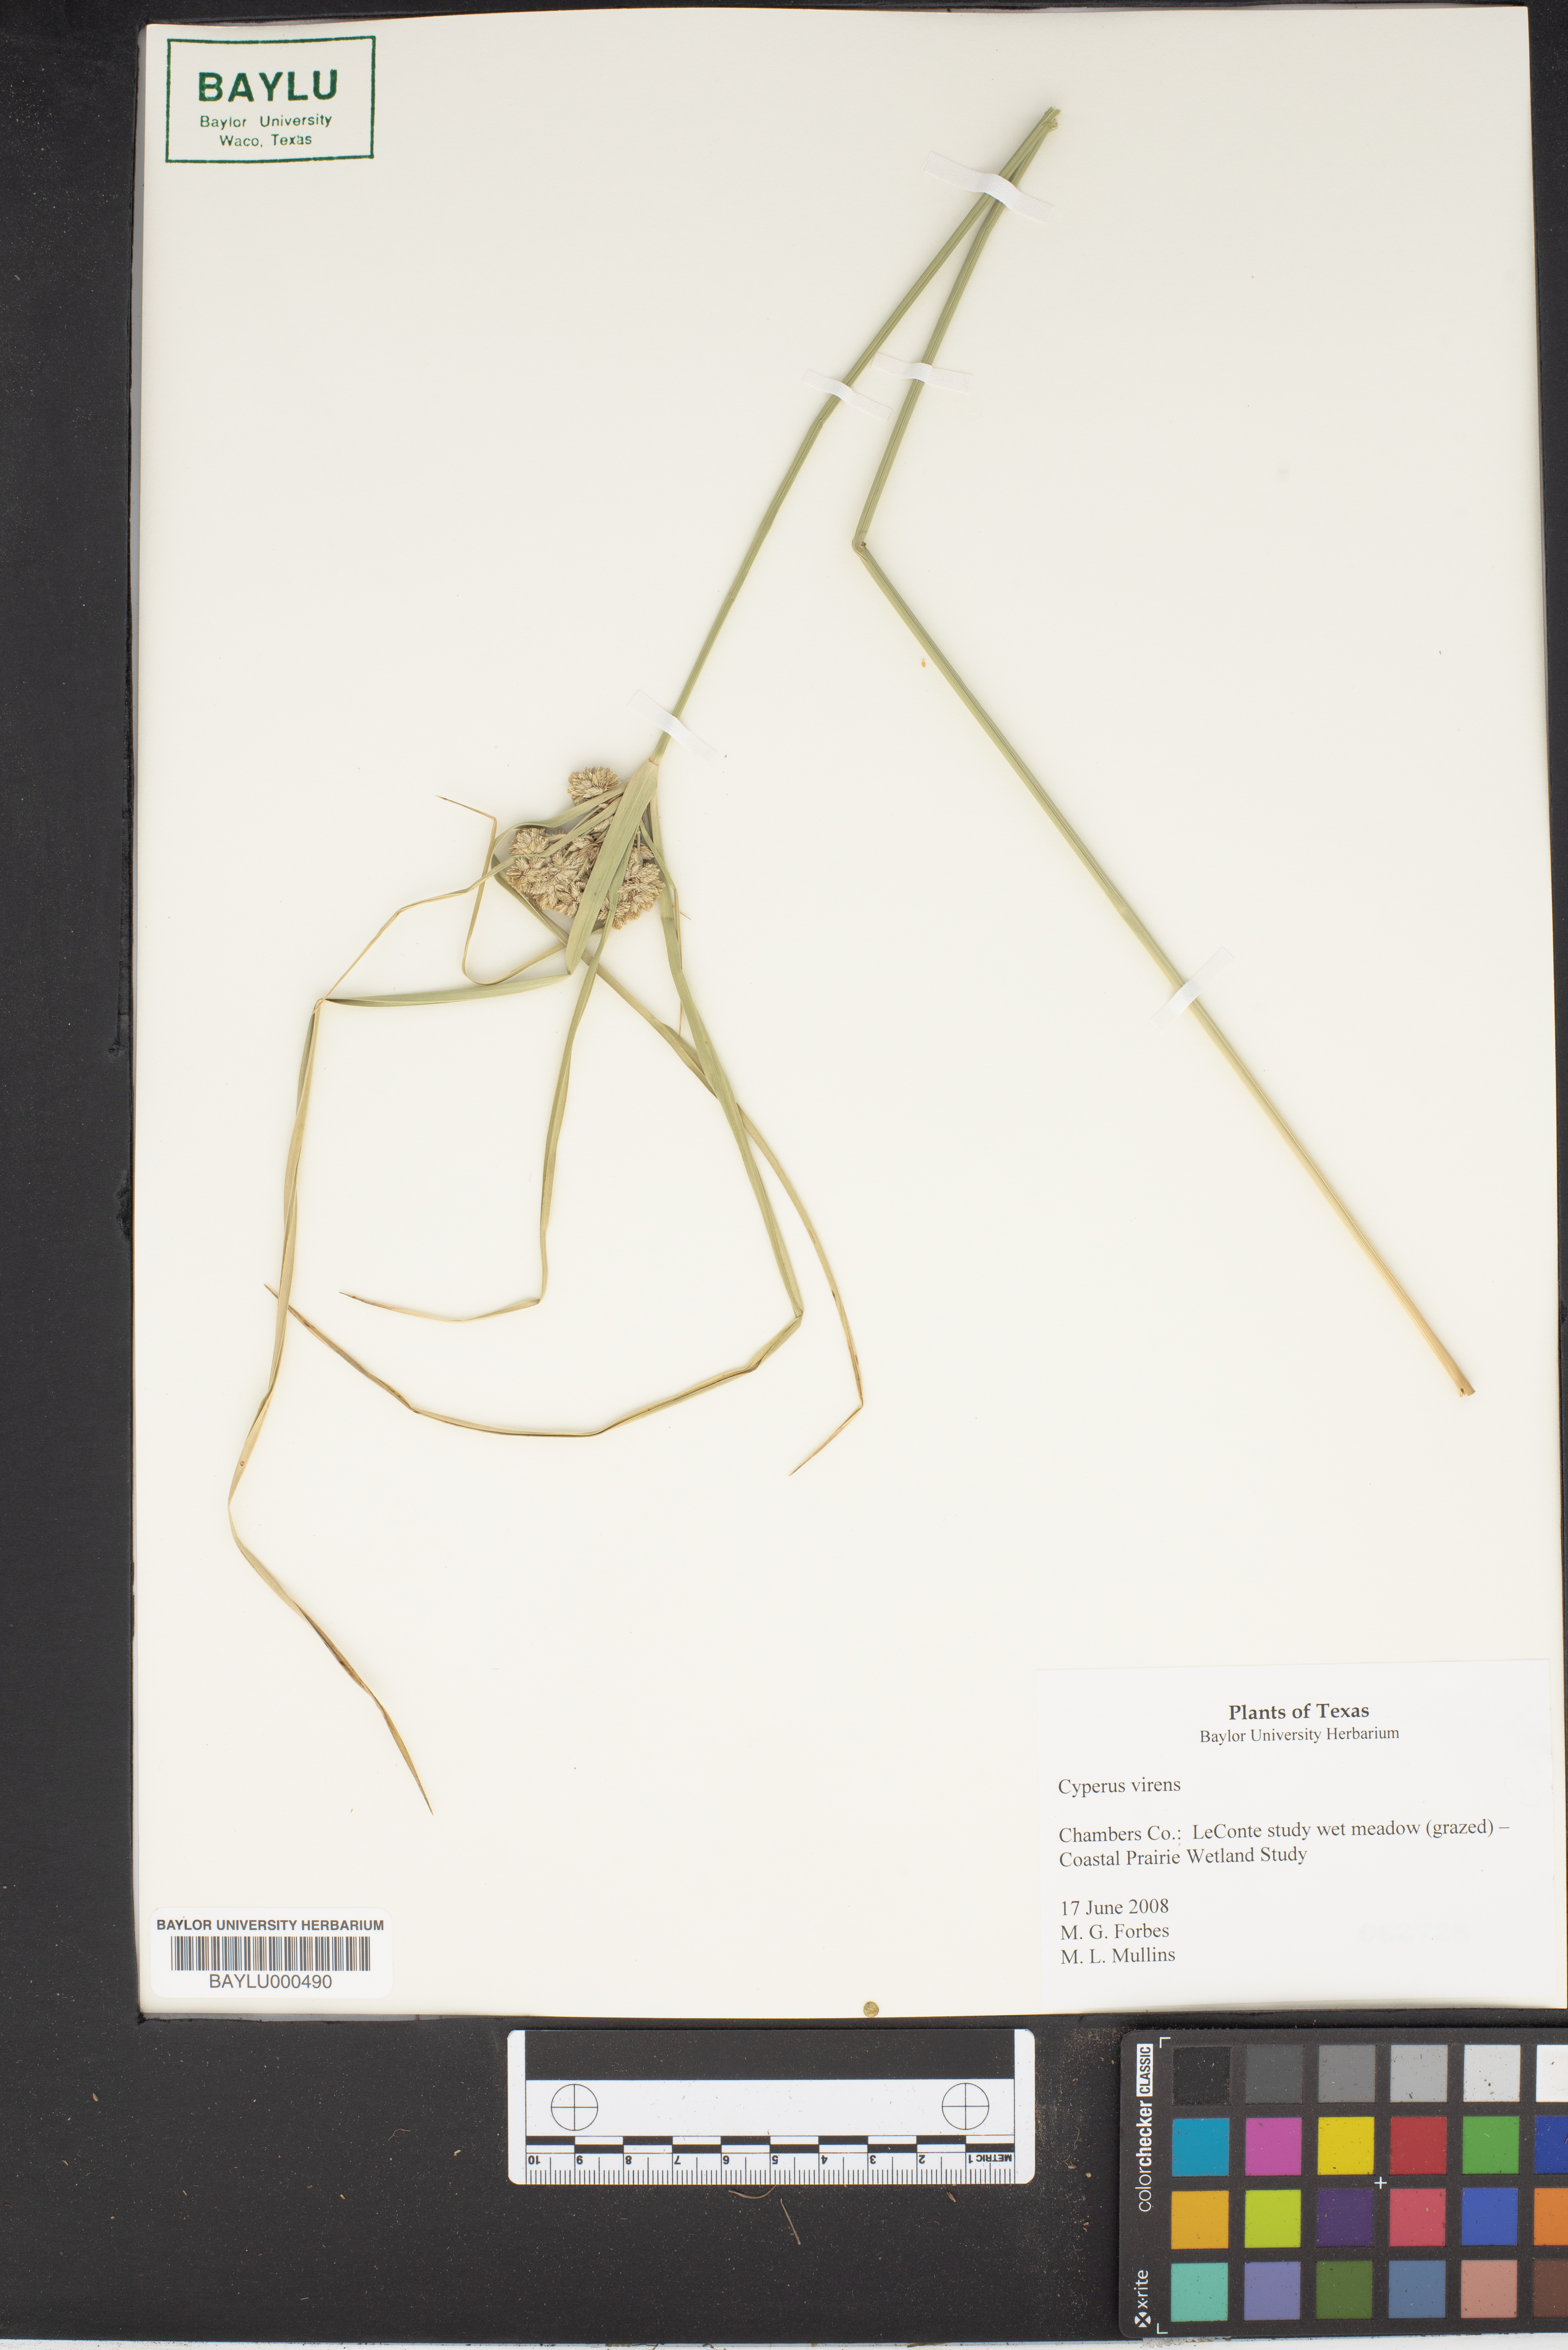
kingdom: Plantae
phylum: Tracheophyta
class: Liliopsida
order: Poales
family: Cyperaceae
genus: Cyperus
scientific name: Cyperus virens
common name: Green flatsedge
